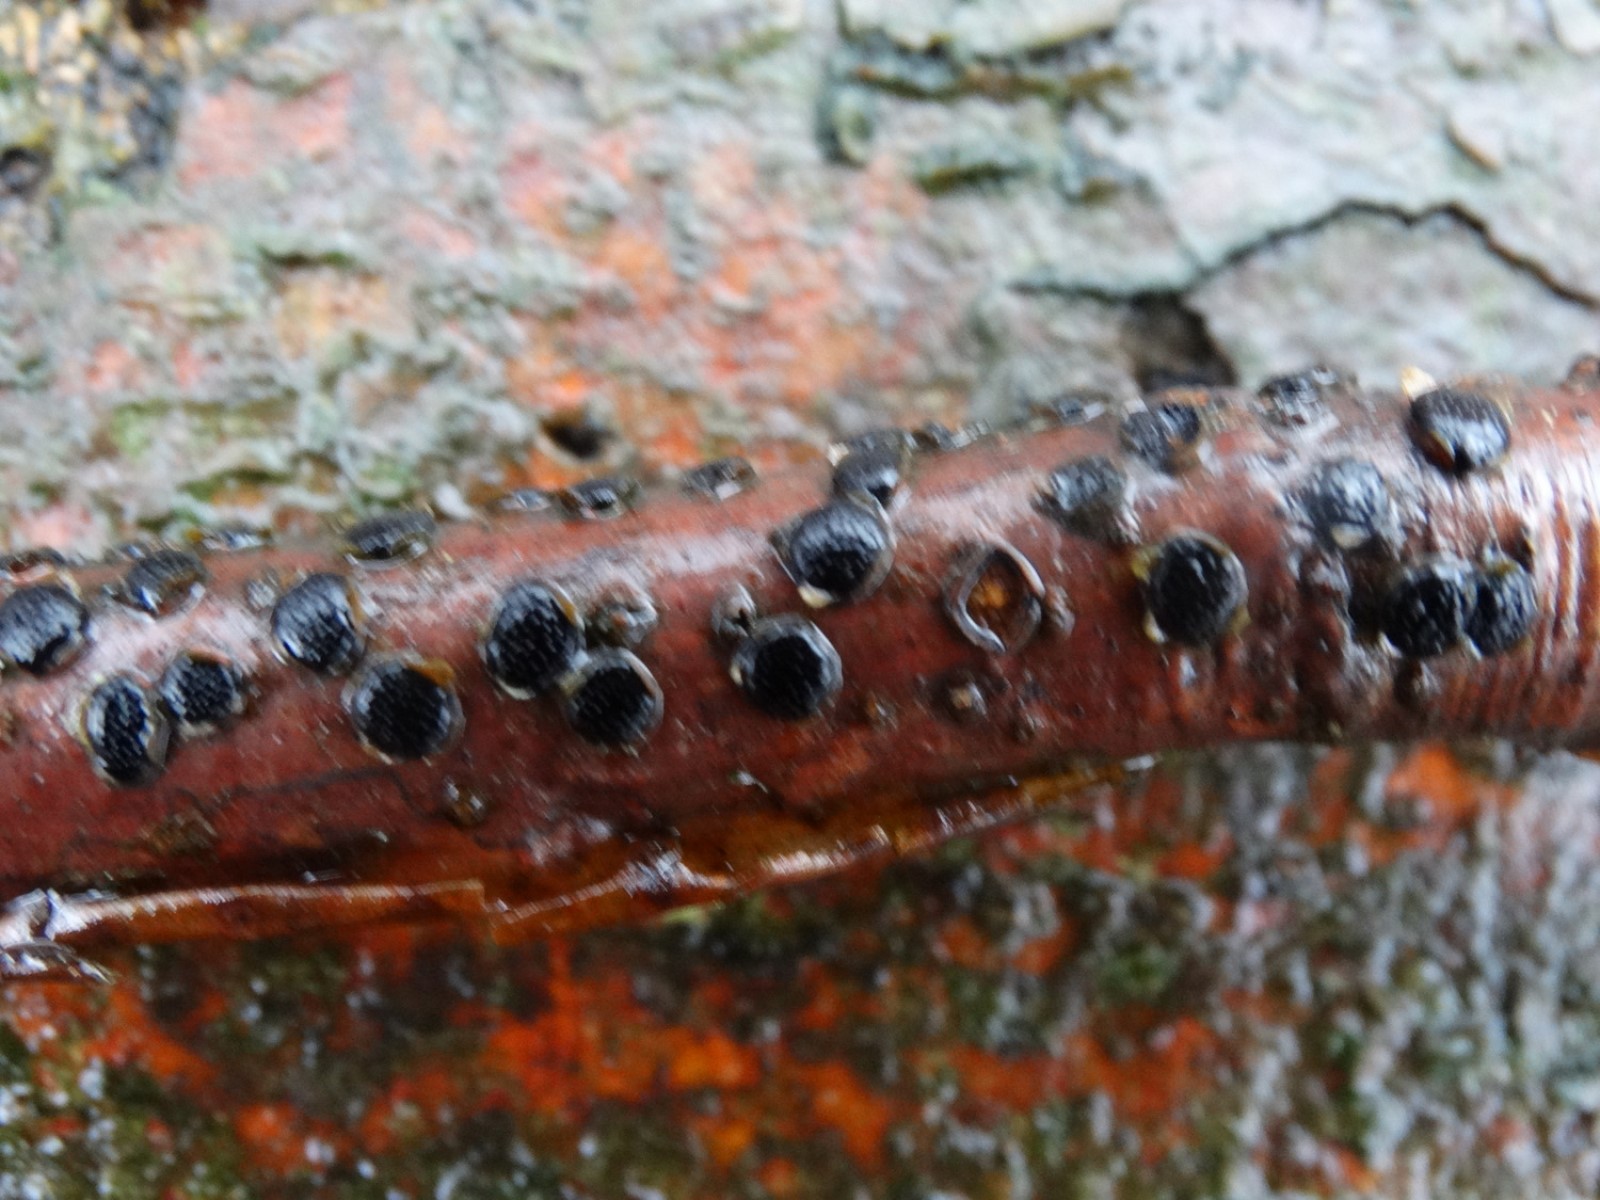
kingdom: Fungi
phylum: Ascomycota
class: Sordariomycetes
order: Xylariales
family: Diatrypaceae
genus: Diatrype
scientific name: Diatrype disciformis
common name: kant-kulskorpe
